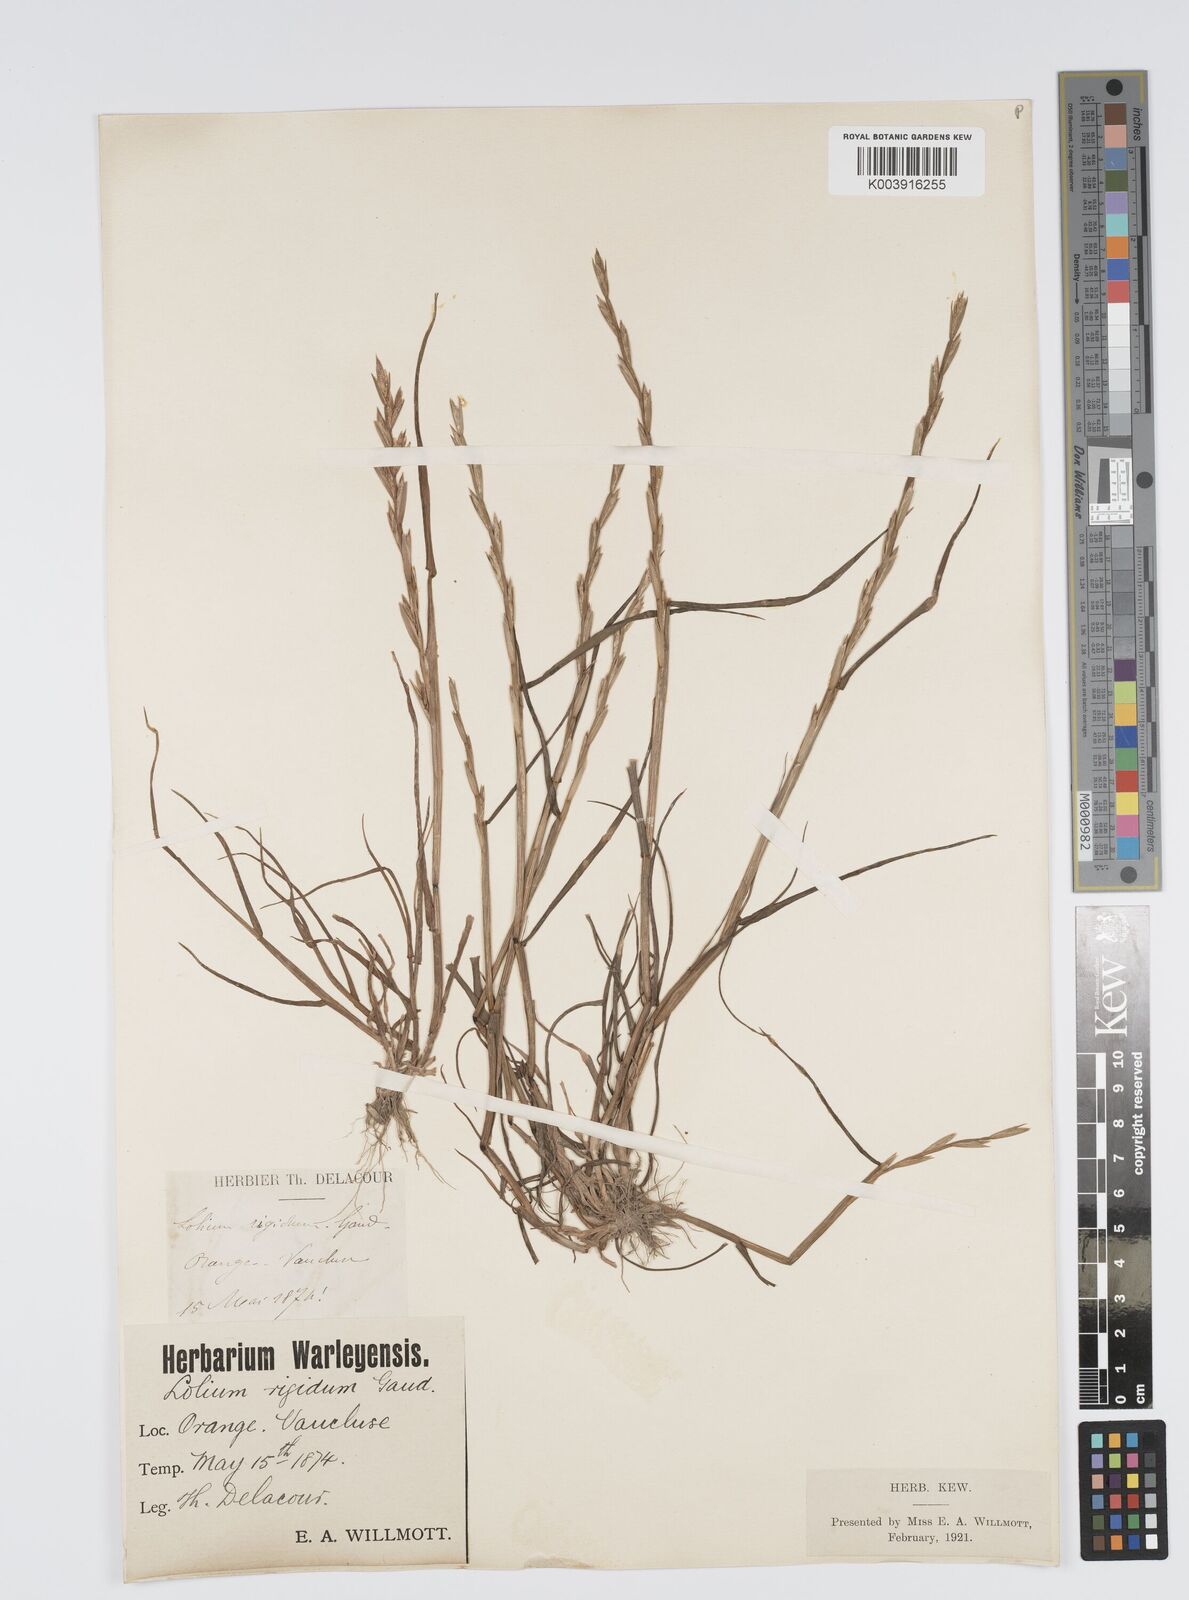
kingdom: Plantae
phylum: Tracheophyta
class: Liliopsida
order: Poales
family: Poaceae
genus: Lolium
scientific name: Lolium rigidum
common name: Wimmera ryegrass
